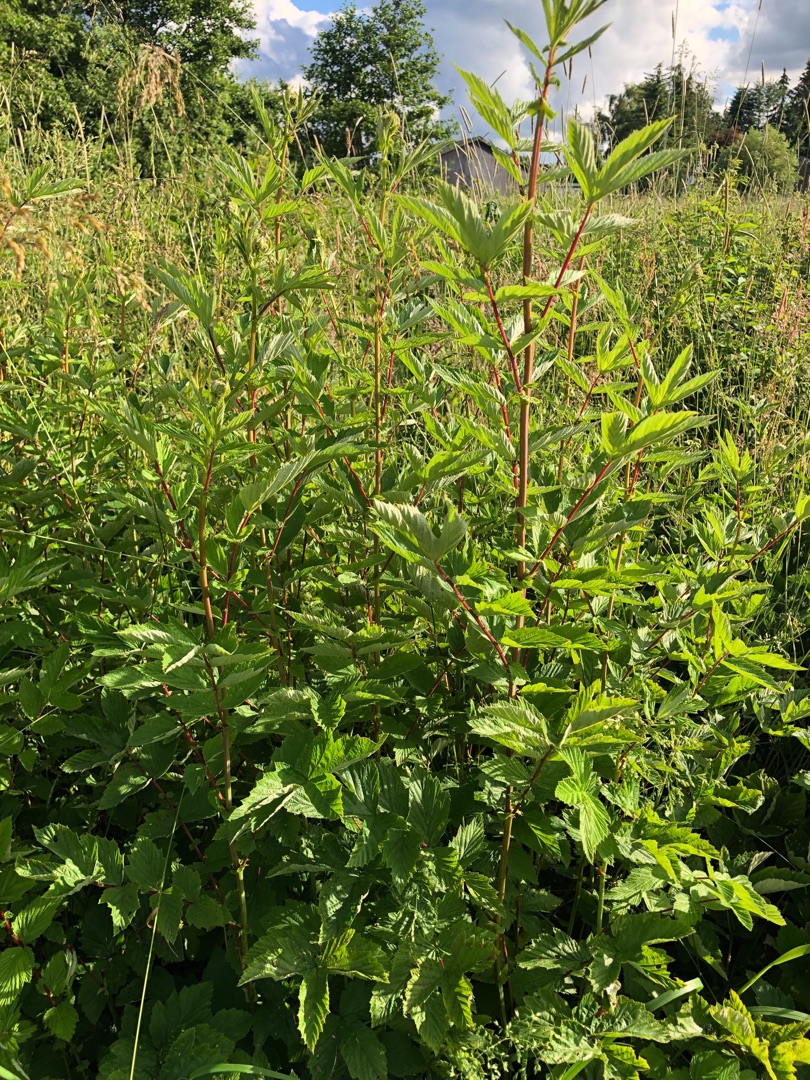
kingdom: Plantae
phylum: Tracheophyta
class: Magnoliopsida
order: Rosales
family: Rosaceae
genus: Filipendula
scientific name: Filipendula ulmaria
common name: Almindelig mjødurt
